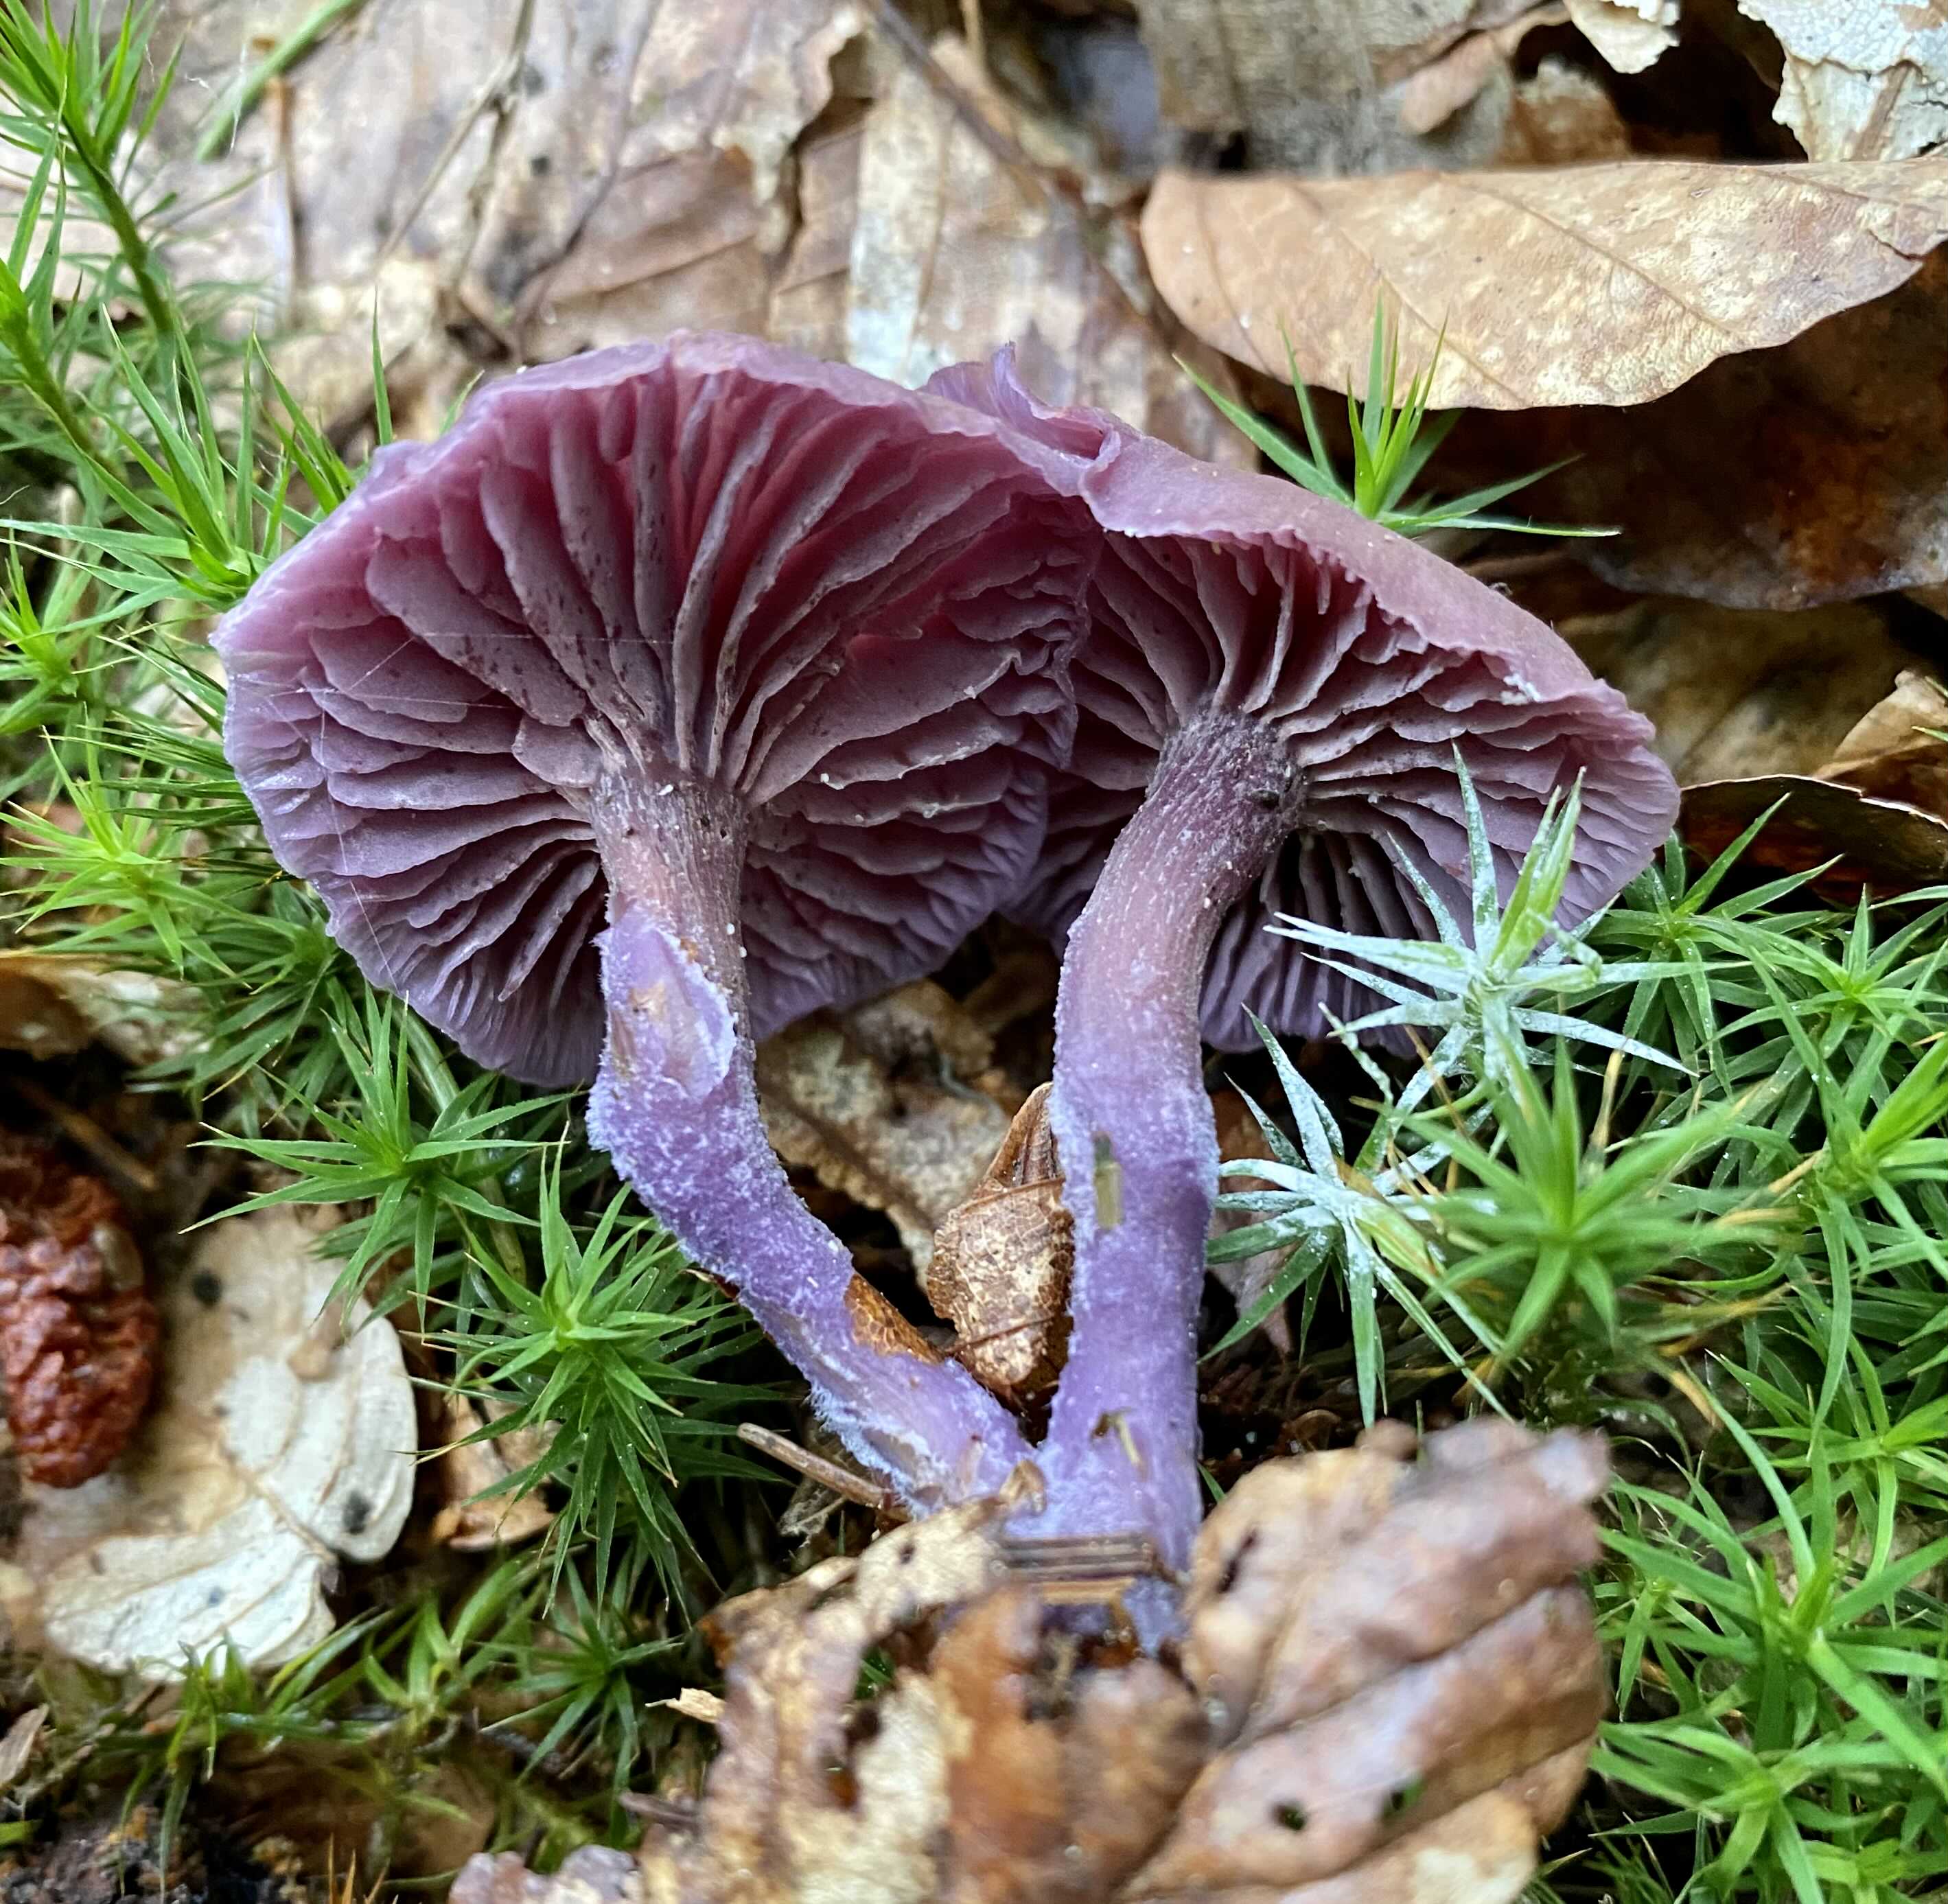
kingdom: Fungi
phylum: Basidiomycota
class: Agaricomycetes
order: Agaricales
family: Hydnangiaceae
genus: Laccaria
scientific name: Laccaria amethystina
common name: violet ametysthat
